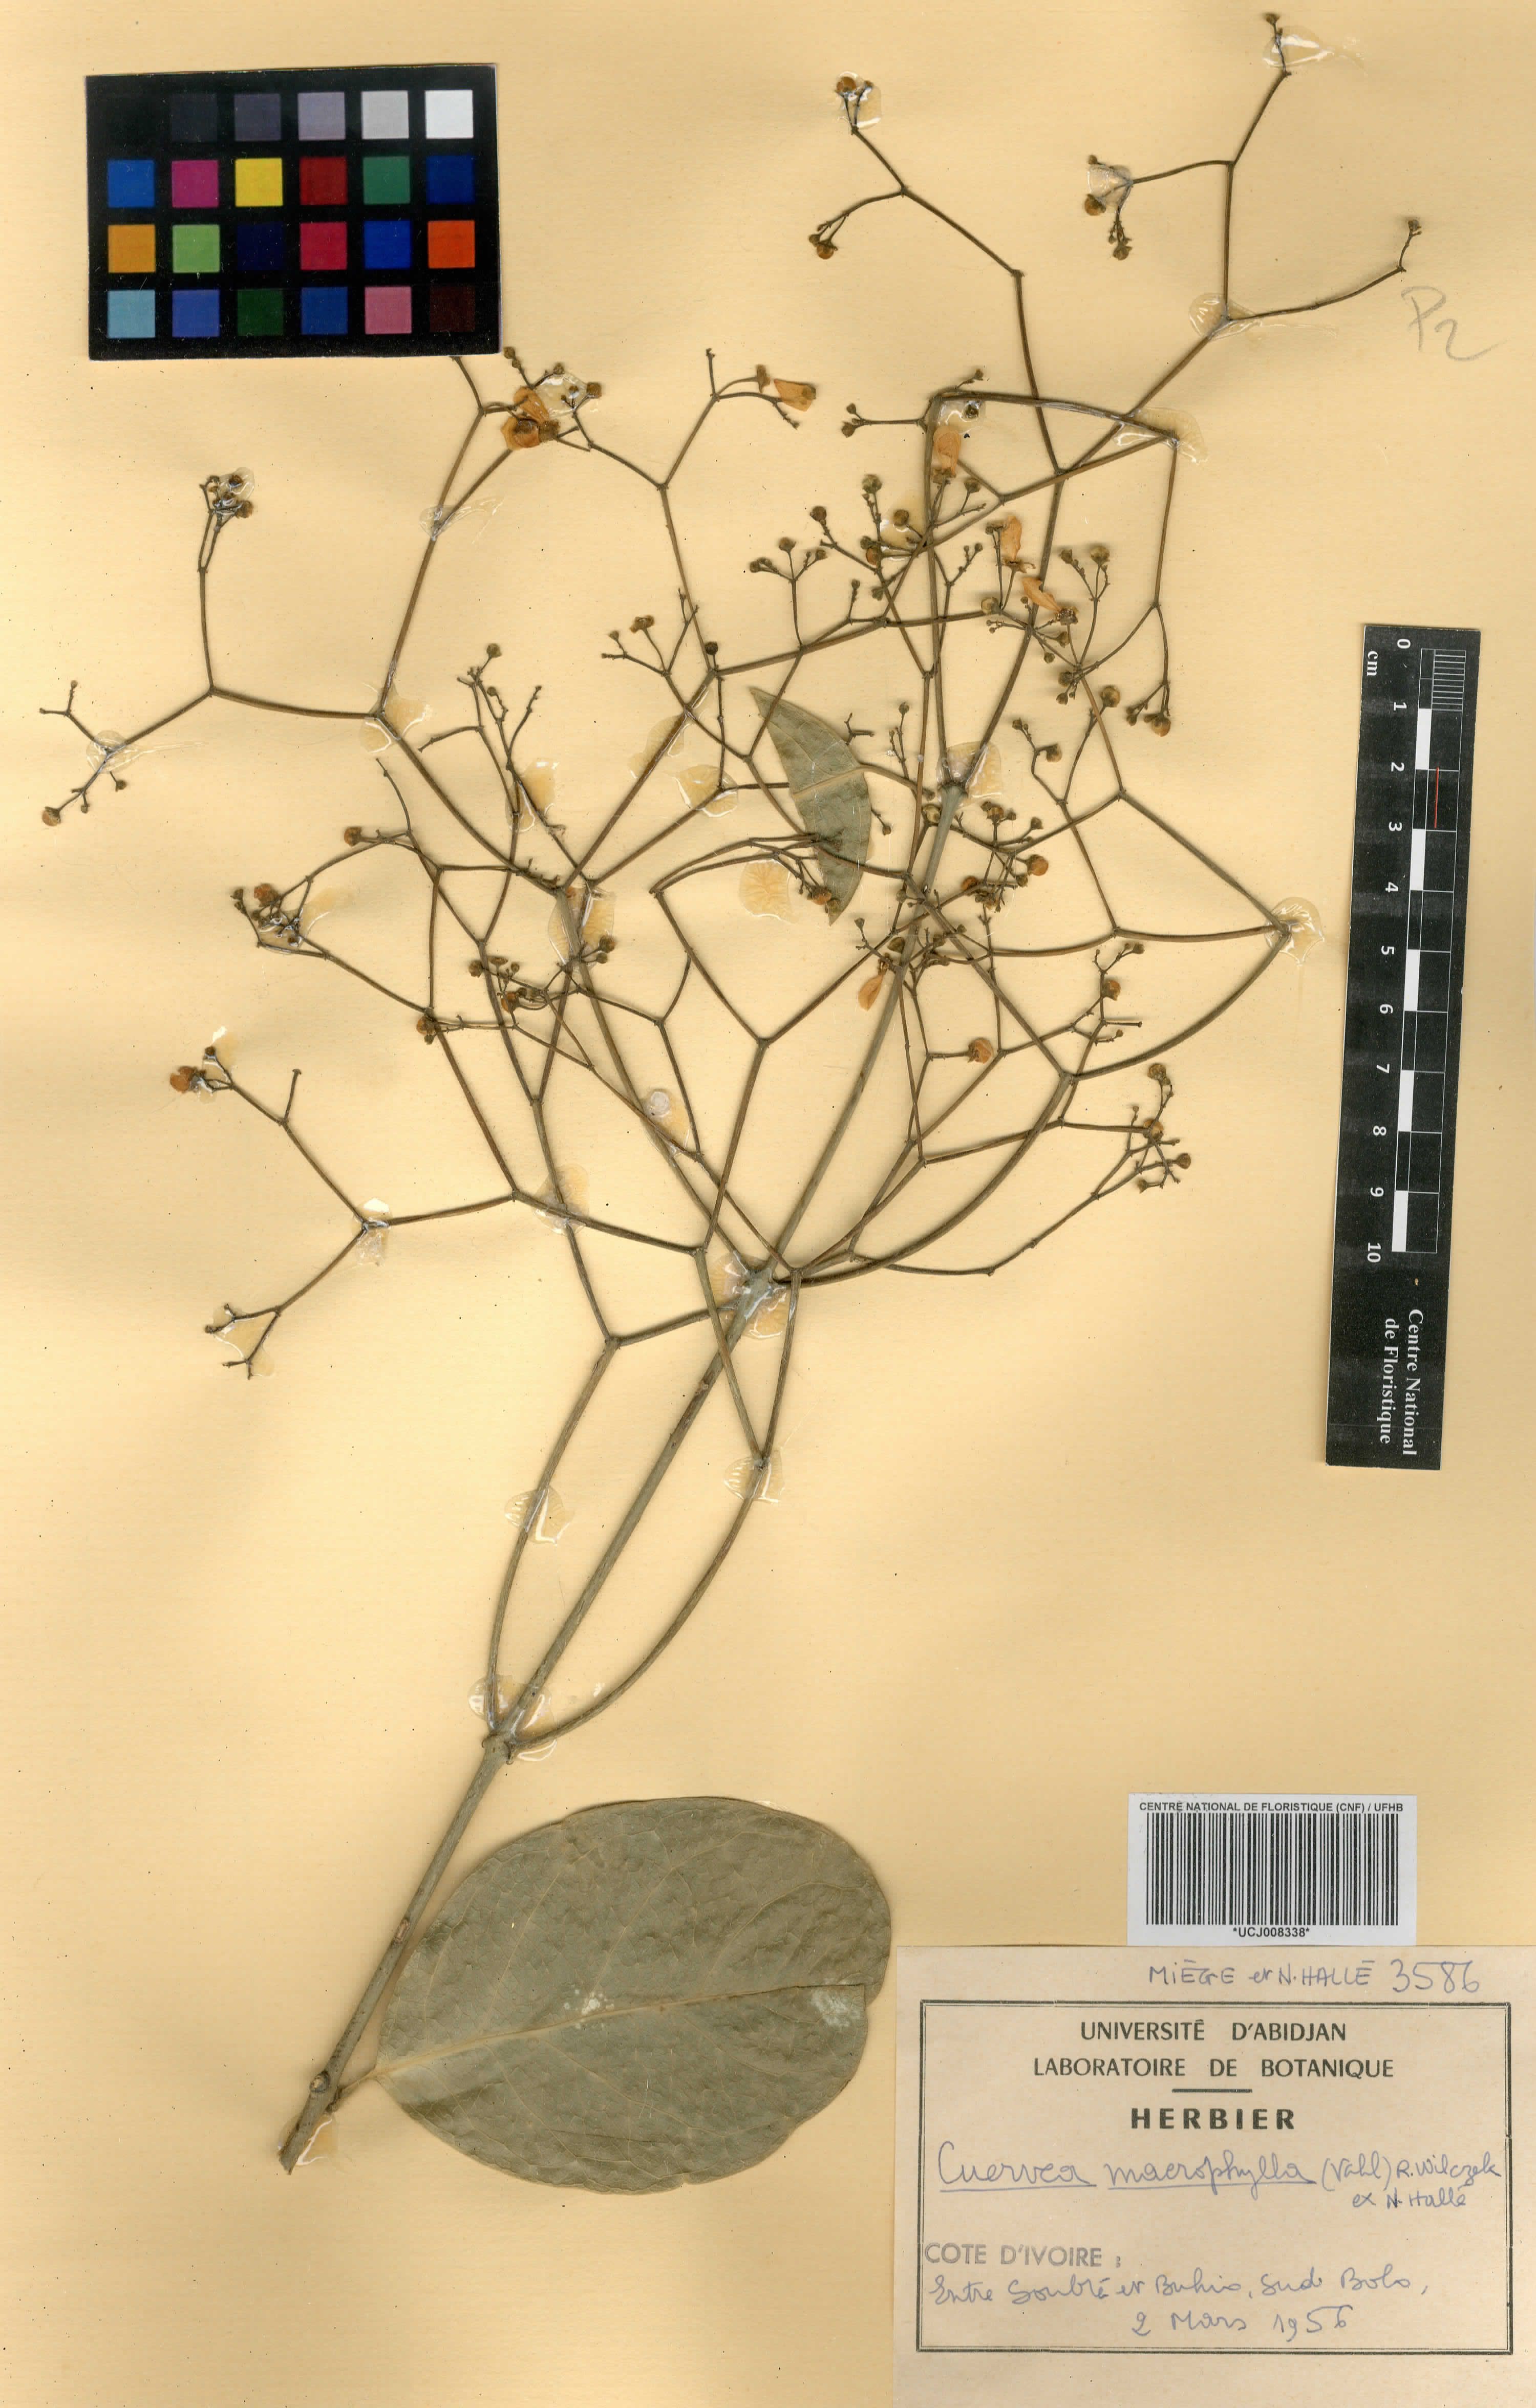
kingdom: Plantae
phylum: Tracheophyta
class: Magnoliopsida
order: Celastrales
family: Celastraceae
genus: Cuervea
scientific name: Cuervea macrophylla
